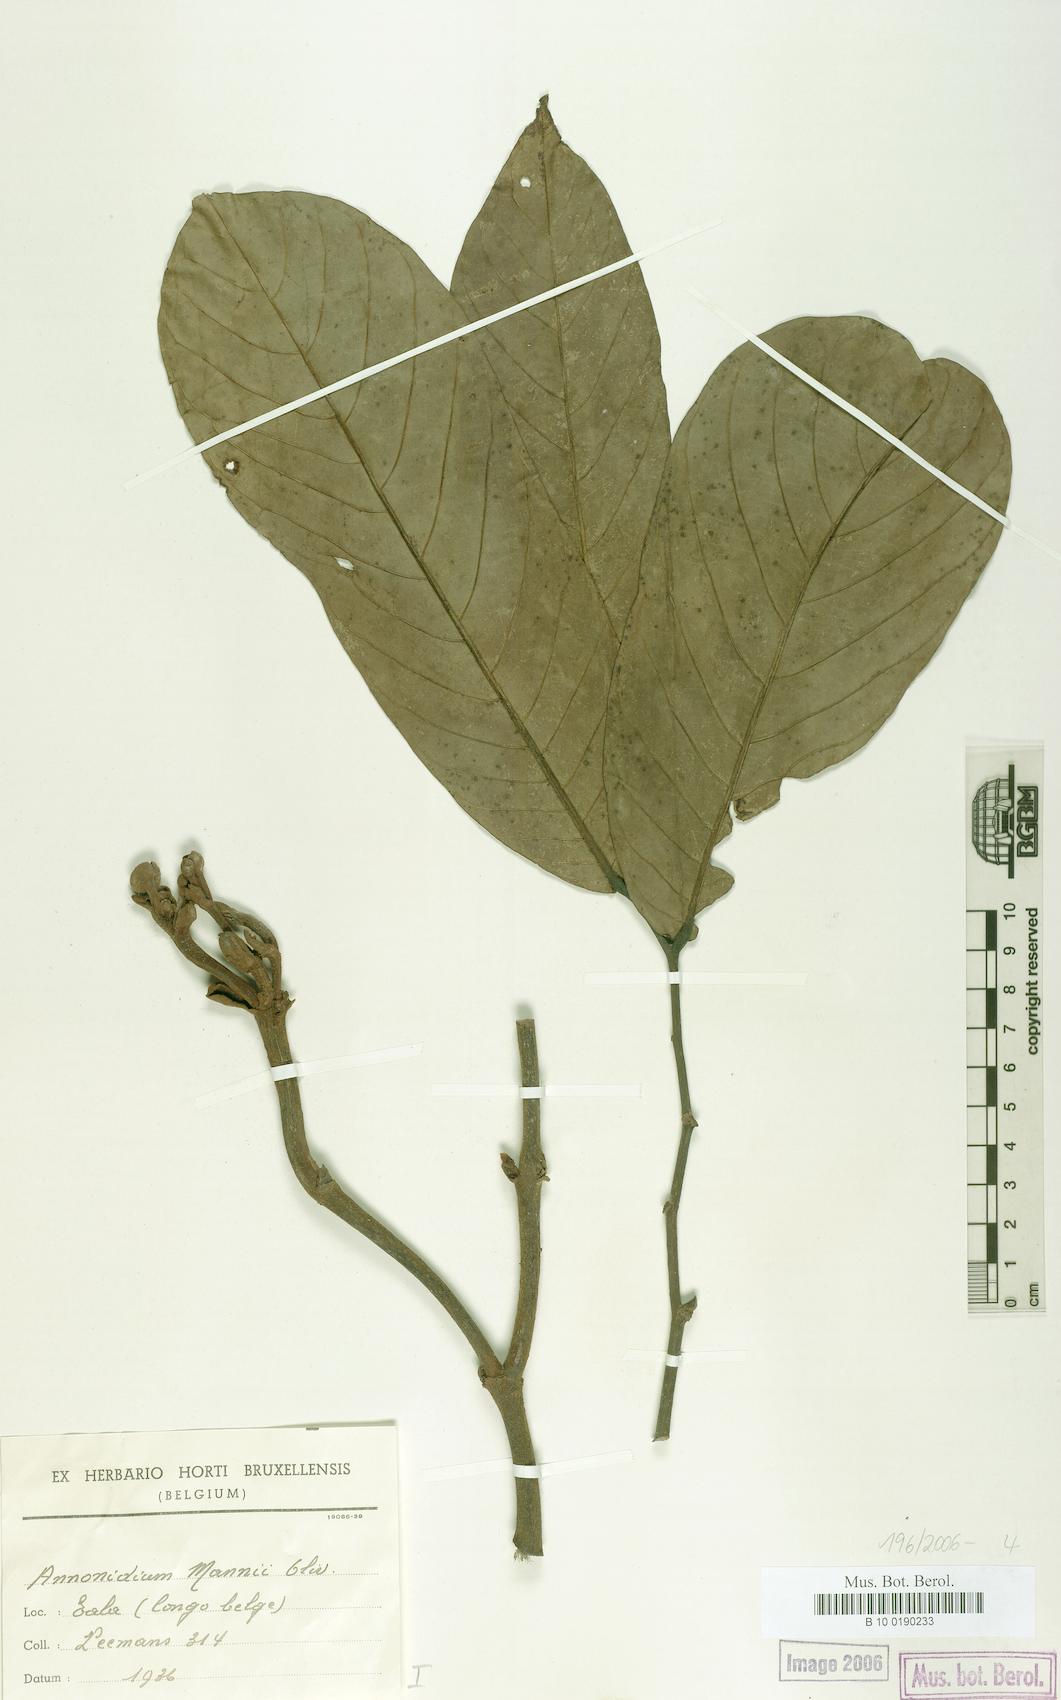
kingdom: Plantae
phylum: Tracheophyta
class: Magnoliopsida
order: Magnoliales
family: Annonaceae
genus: Anonidium
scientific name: Anonidium mannii
